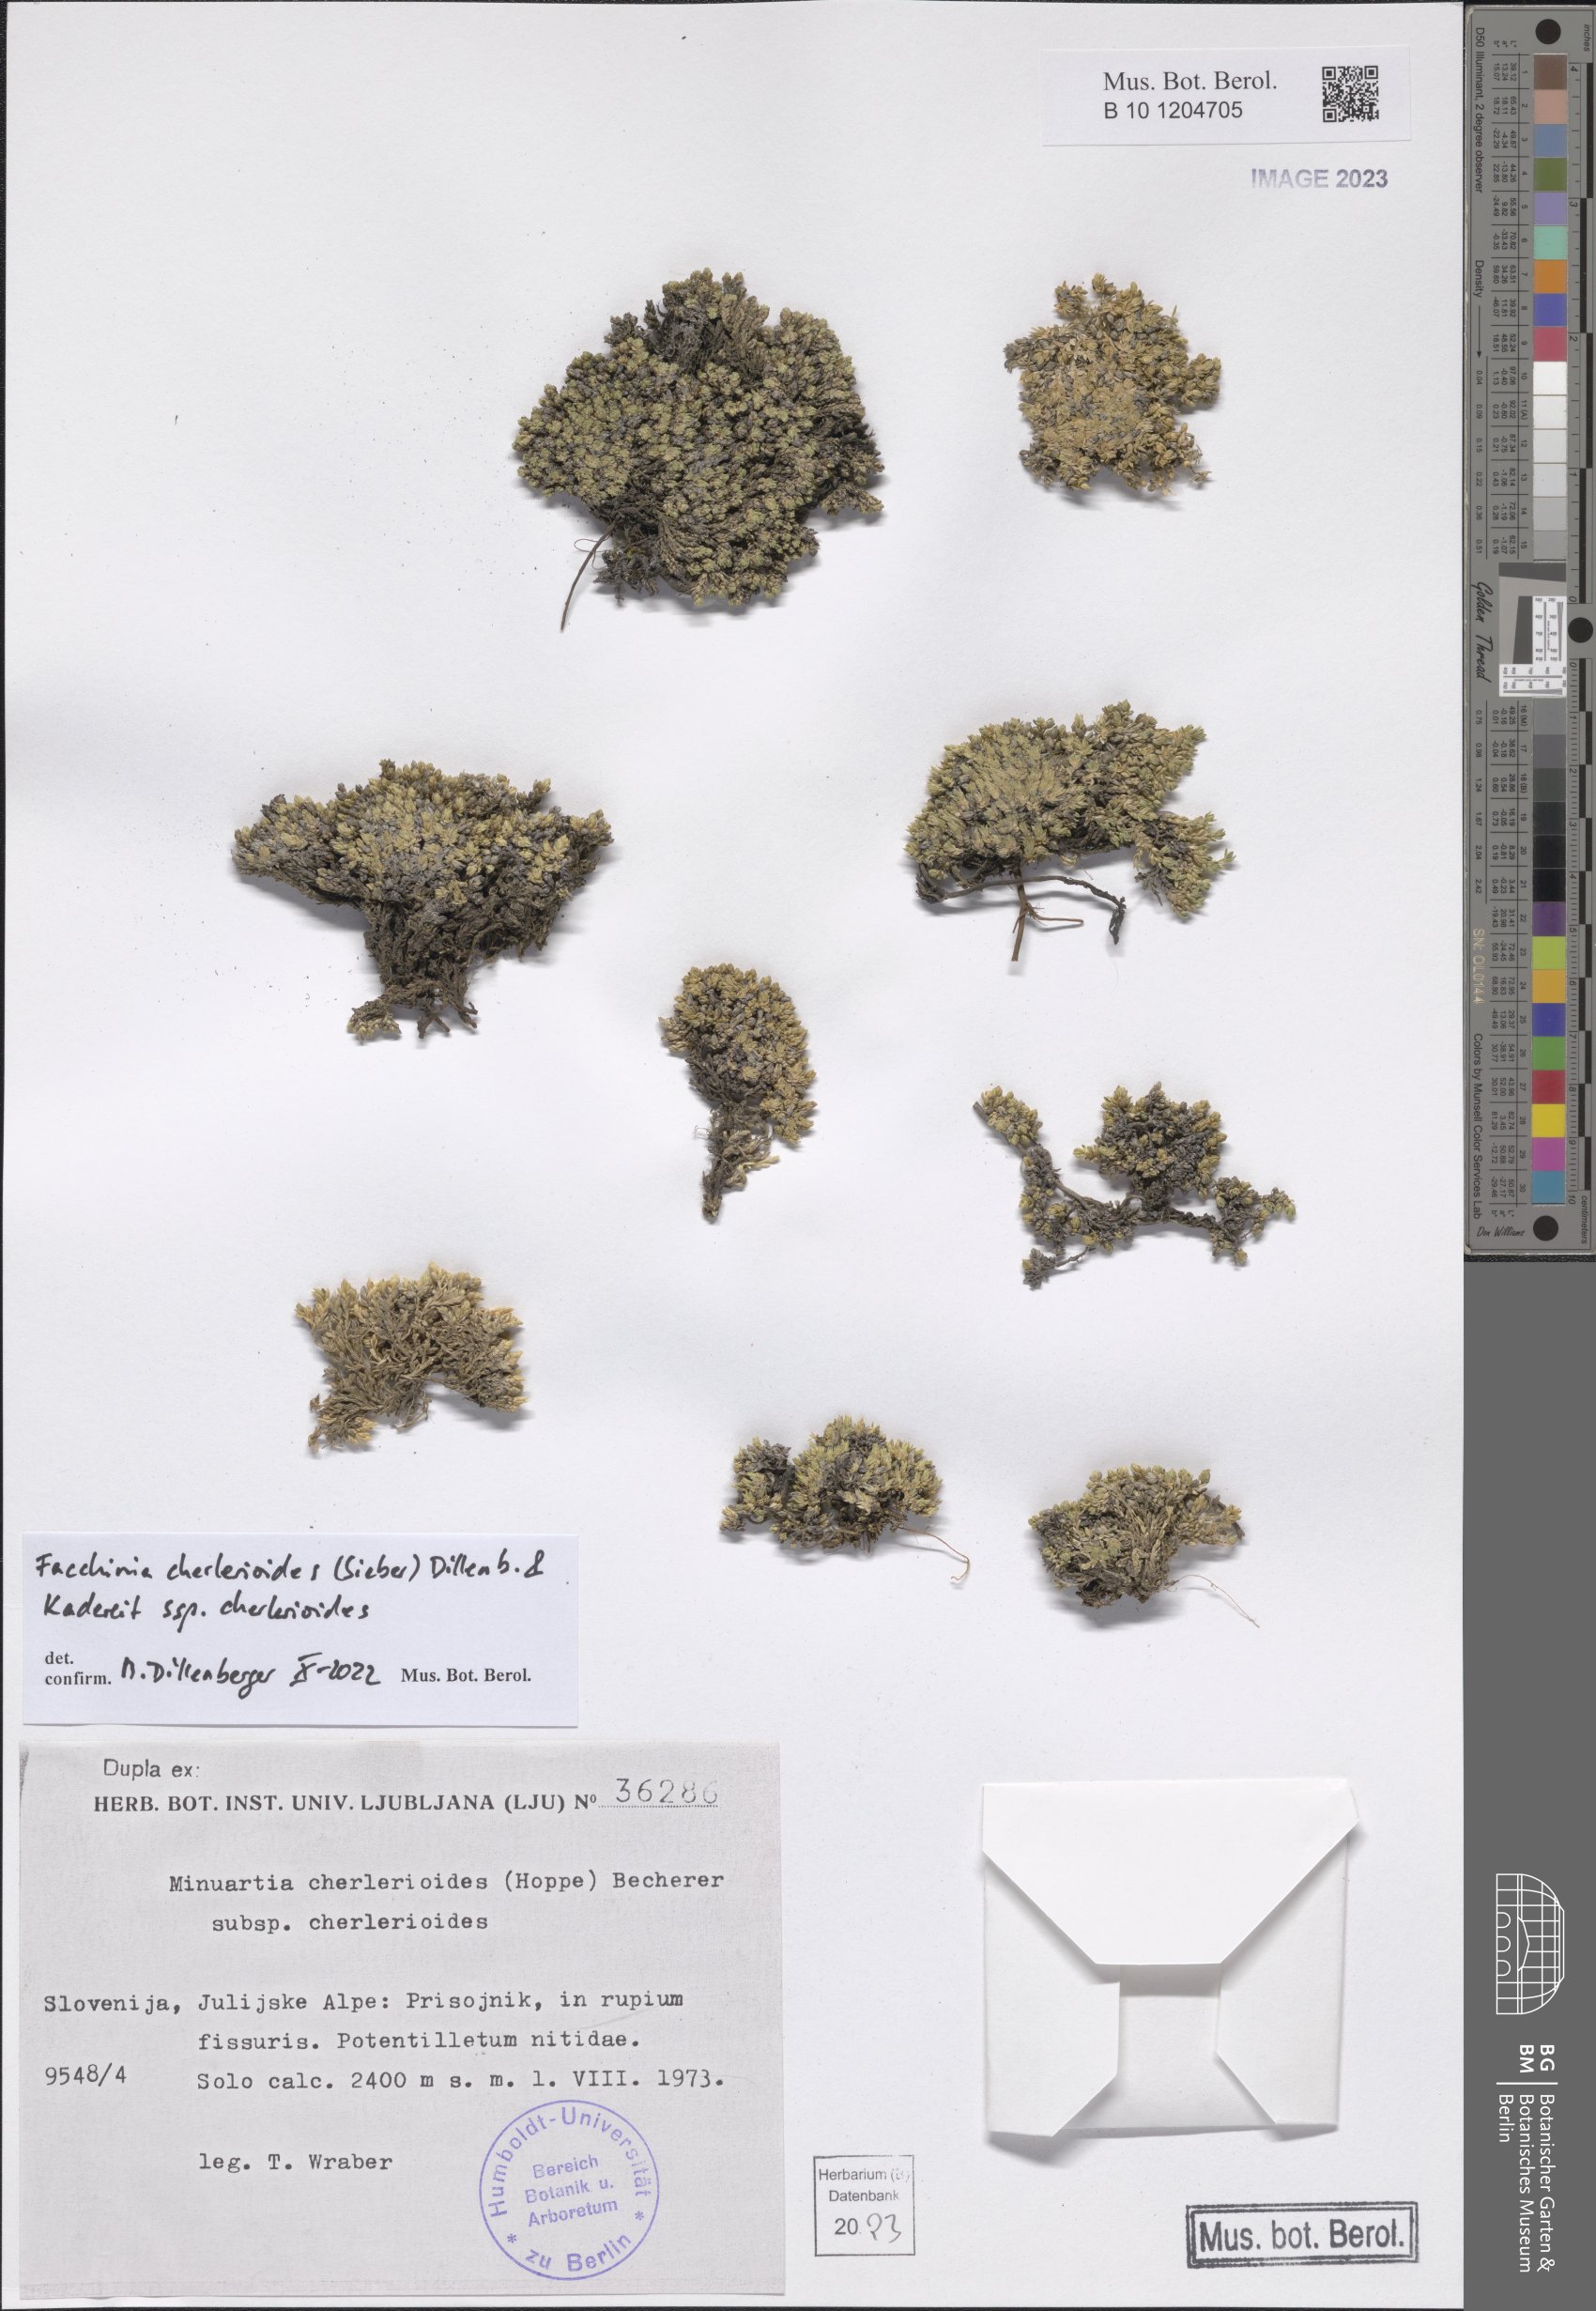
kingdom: Plantae
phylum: Tracheophyta
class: Magnoliopsida
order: Caryophyllales
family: Caryophyllaceae
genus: Facchinia
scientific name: Facchinia cherlerioides
